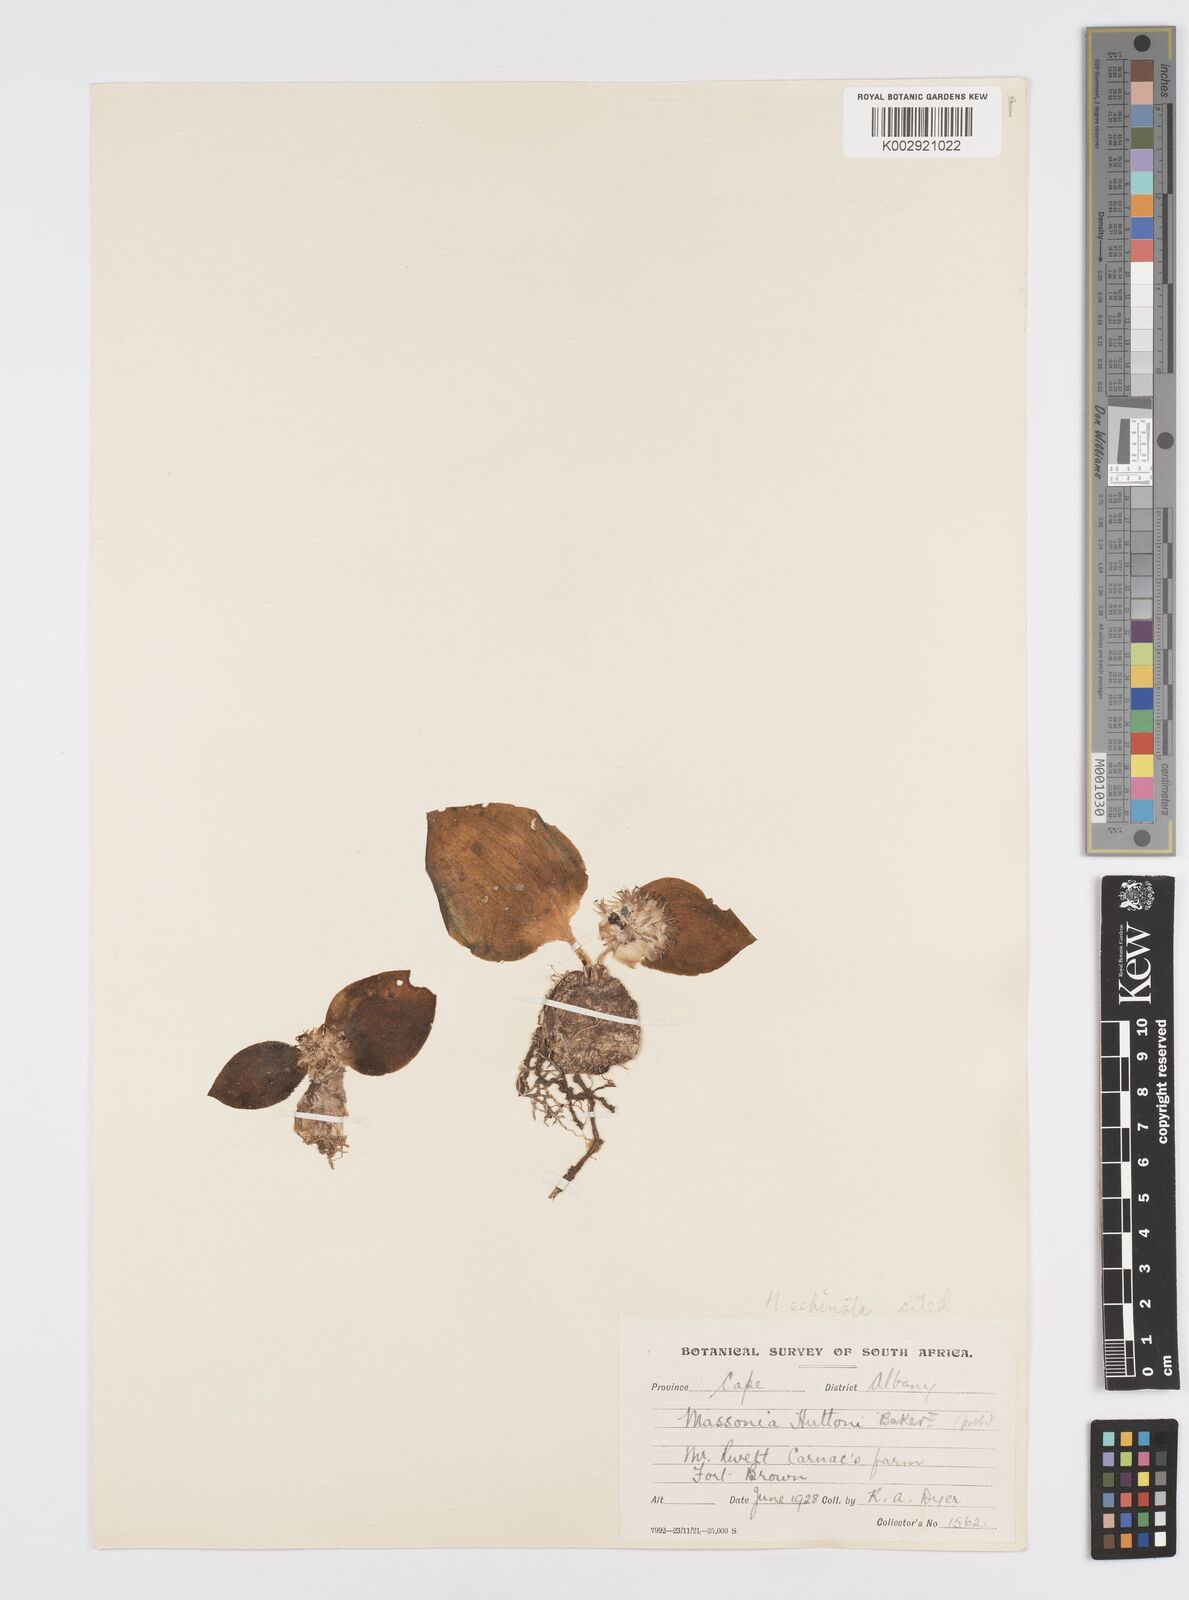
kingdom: Plantae
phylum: Tracheophyta
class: Liliopsida
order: Asparagales
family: Asparagaceae
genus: Massonia
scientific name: Massonia
